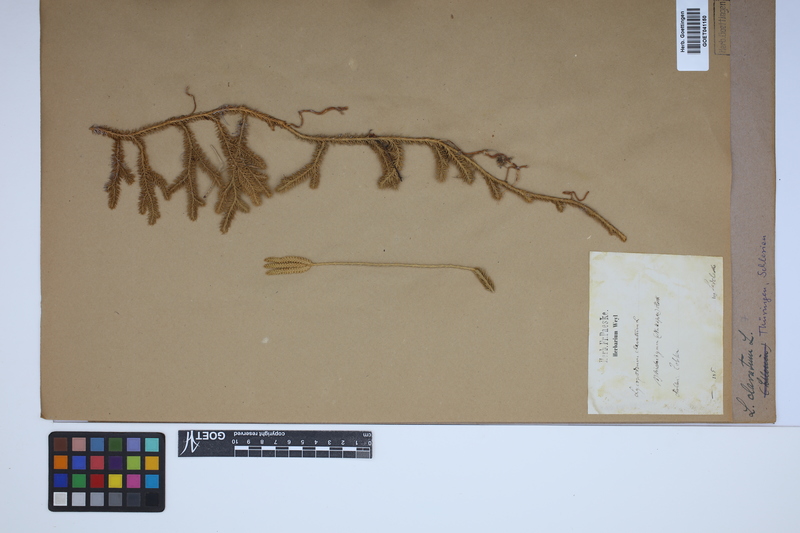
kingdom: Plantae
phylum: Tracheophyta
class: Lycopodiopsida
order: Lycopodiales
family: Lycopodiaceae
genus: Lycopodium
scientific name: Lycopodium clavatum
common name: Stag's-horn clubmoss
